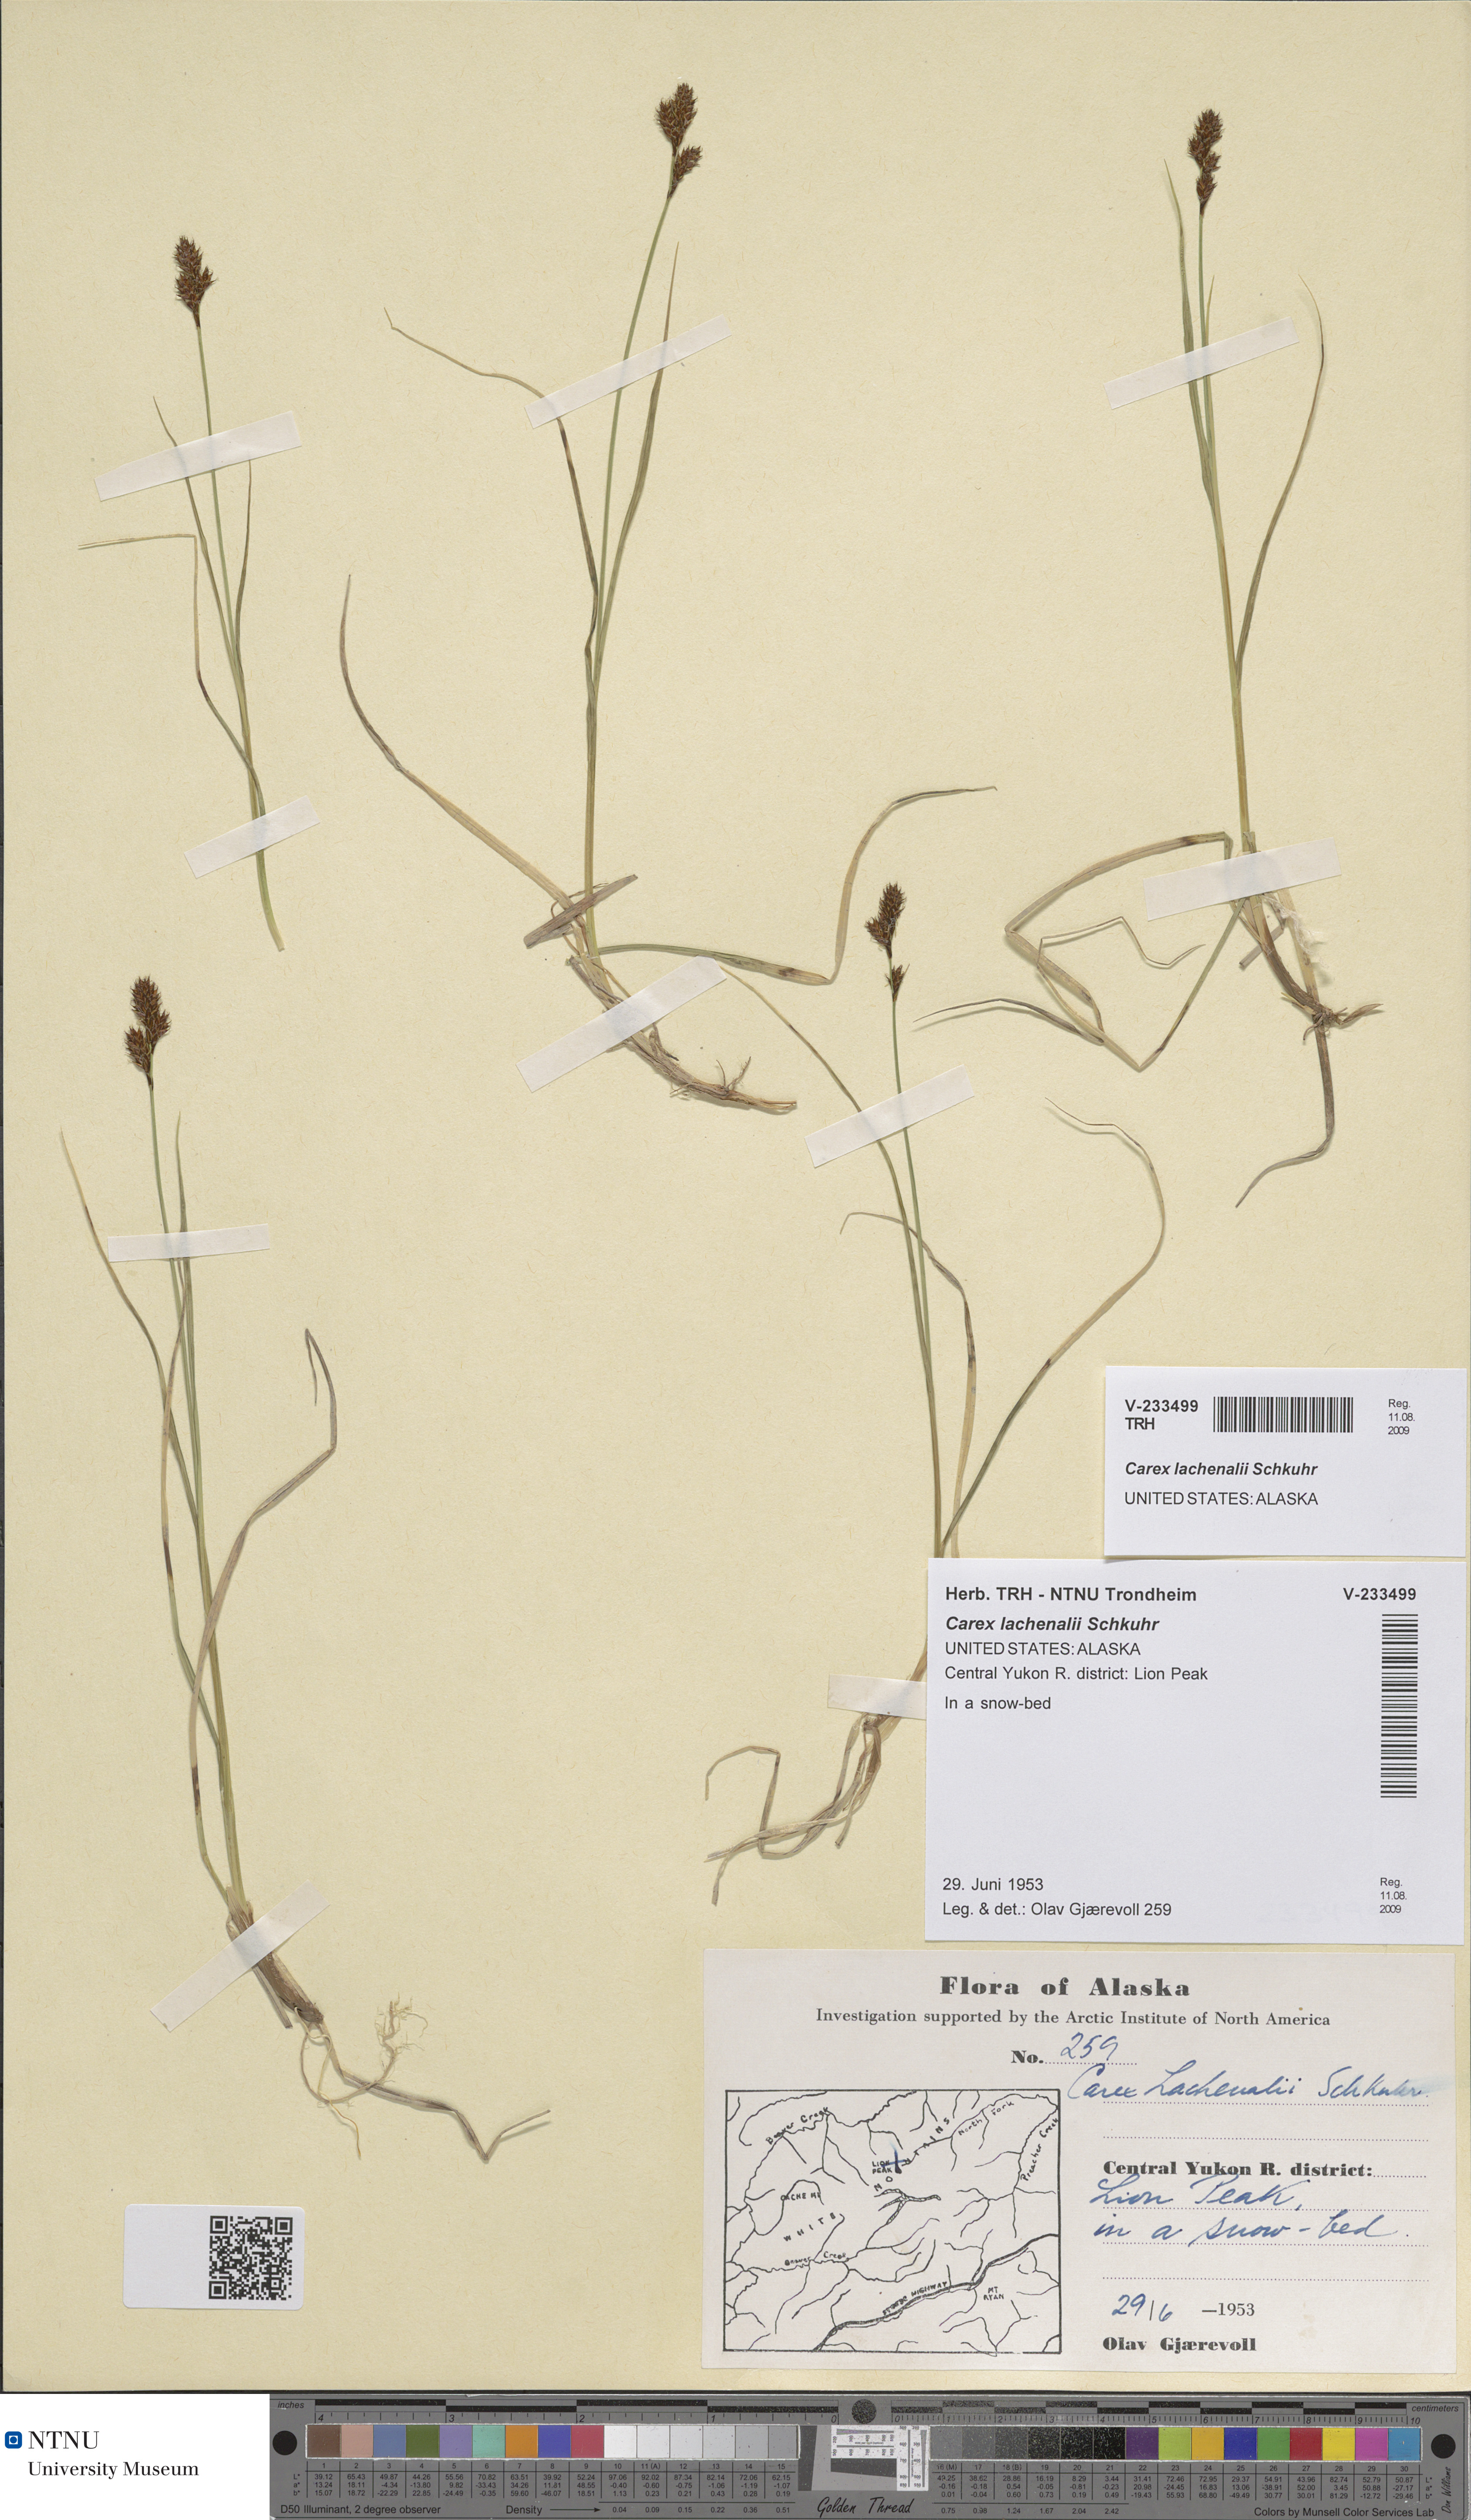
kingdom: Plantae
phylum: Tracheophyta
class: Liliopsida
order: Poales
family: Cyperaceae
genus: Carex
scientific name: Carex lachenalii
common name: Hare's-foot sedge
